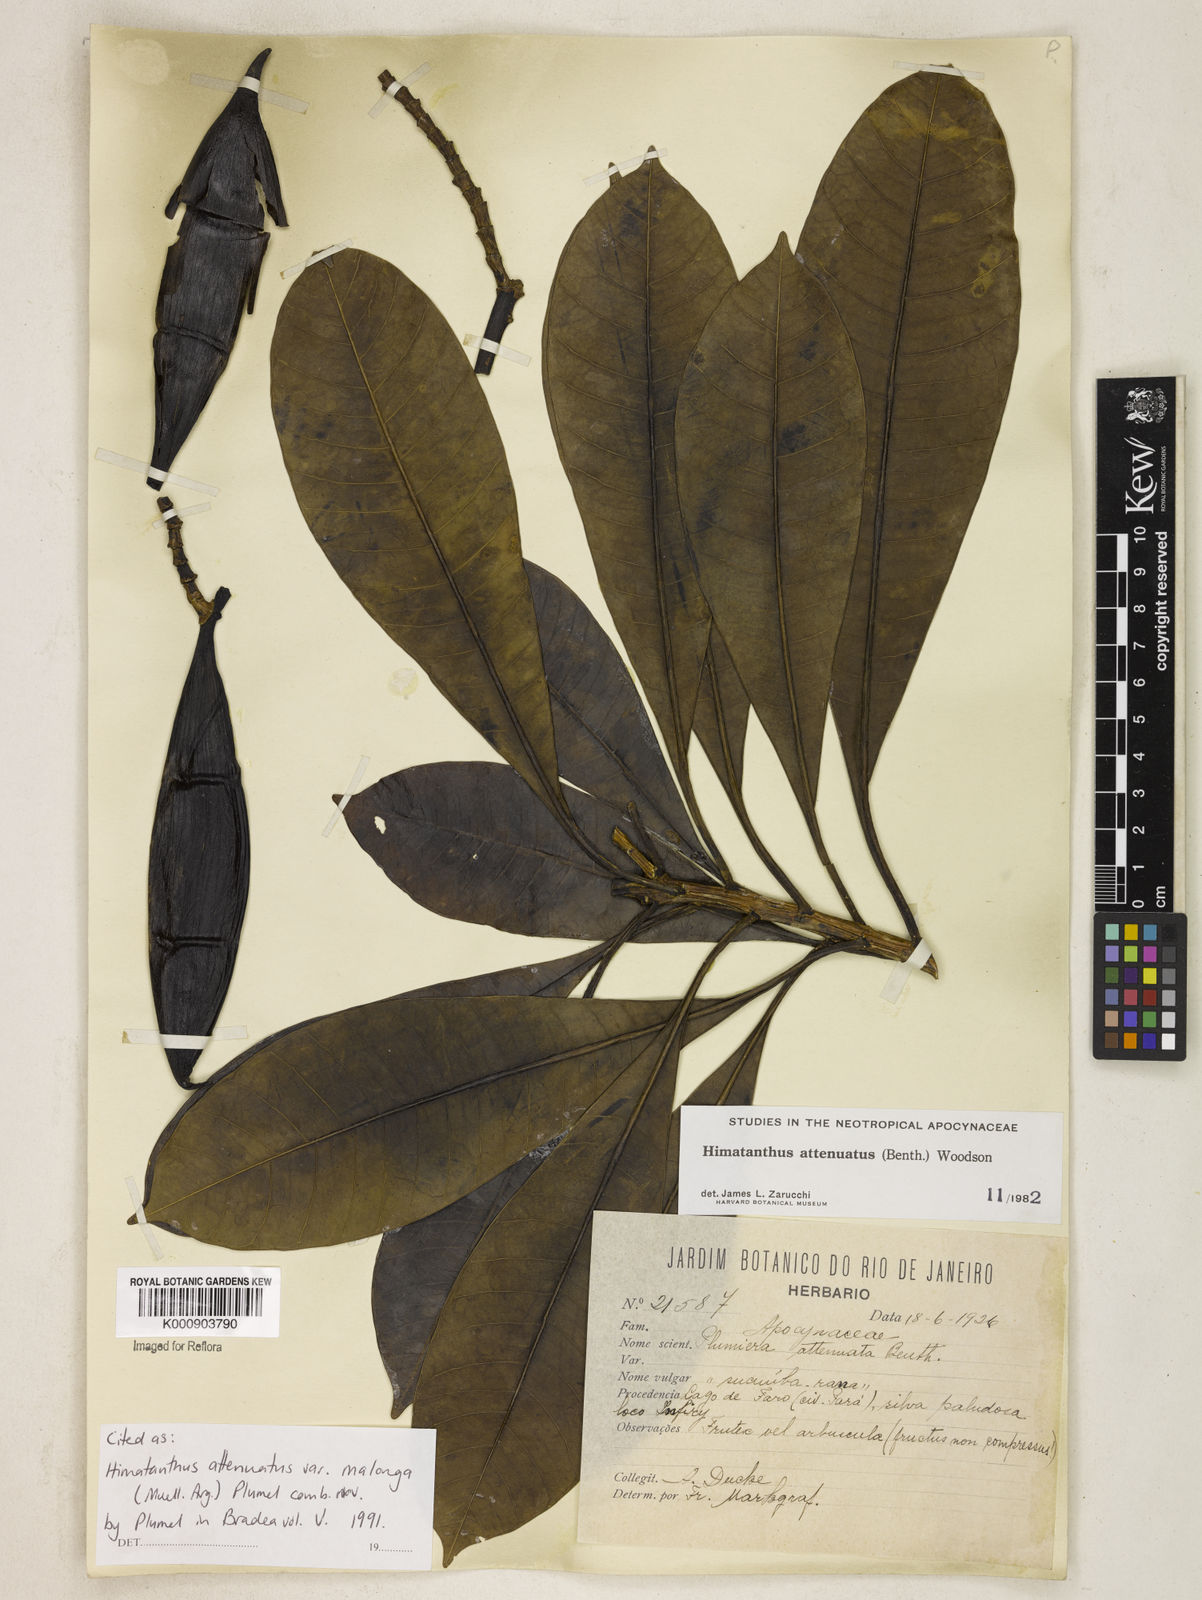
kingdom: Plantae
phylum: Tracheophyta
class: Magnoliopsida
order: Gentianales
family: Apocynaceae
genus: Himatanthus
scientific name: Himatanthus
